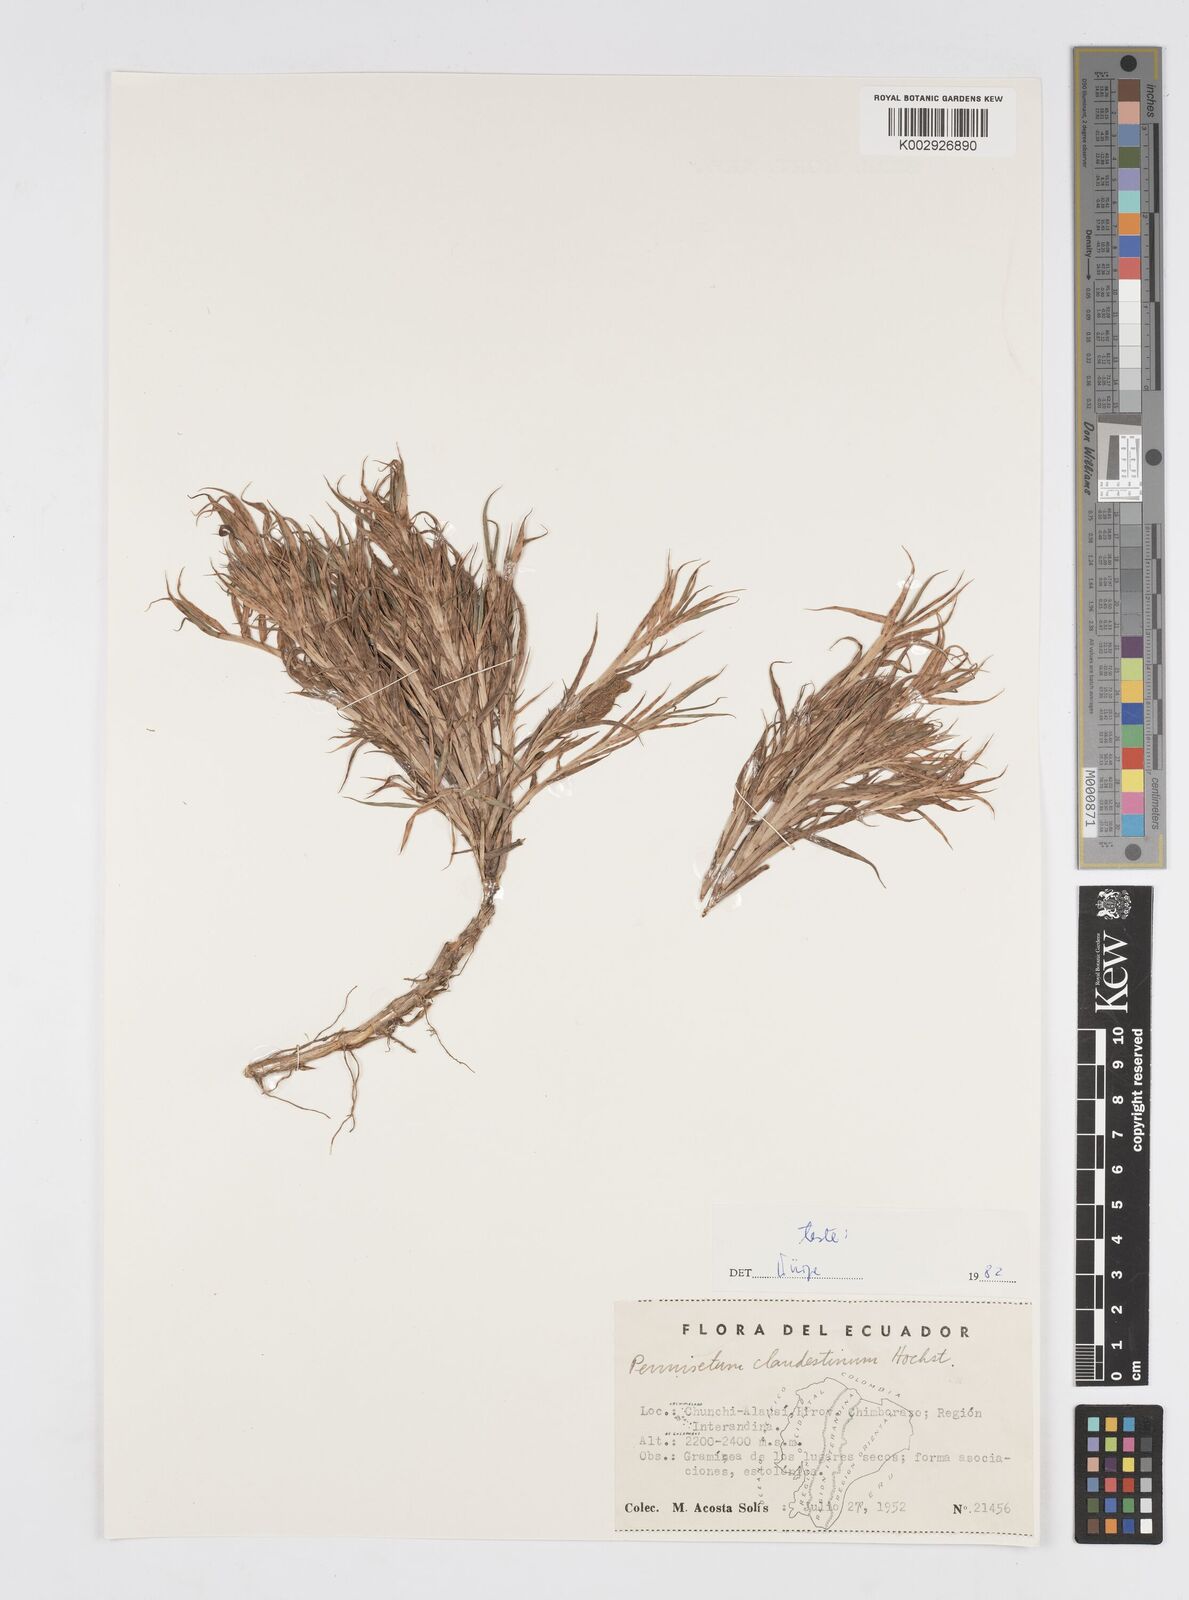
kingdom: Plantae
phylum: Tracheophyta
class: Liliopsida
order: Poales
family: Poaceae
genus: Cenchrus
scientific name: Cenchrus clandestinus
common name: Kikuyugrass
